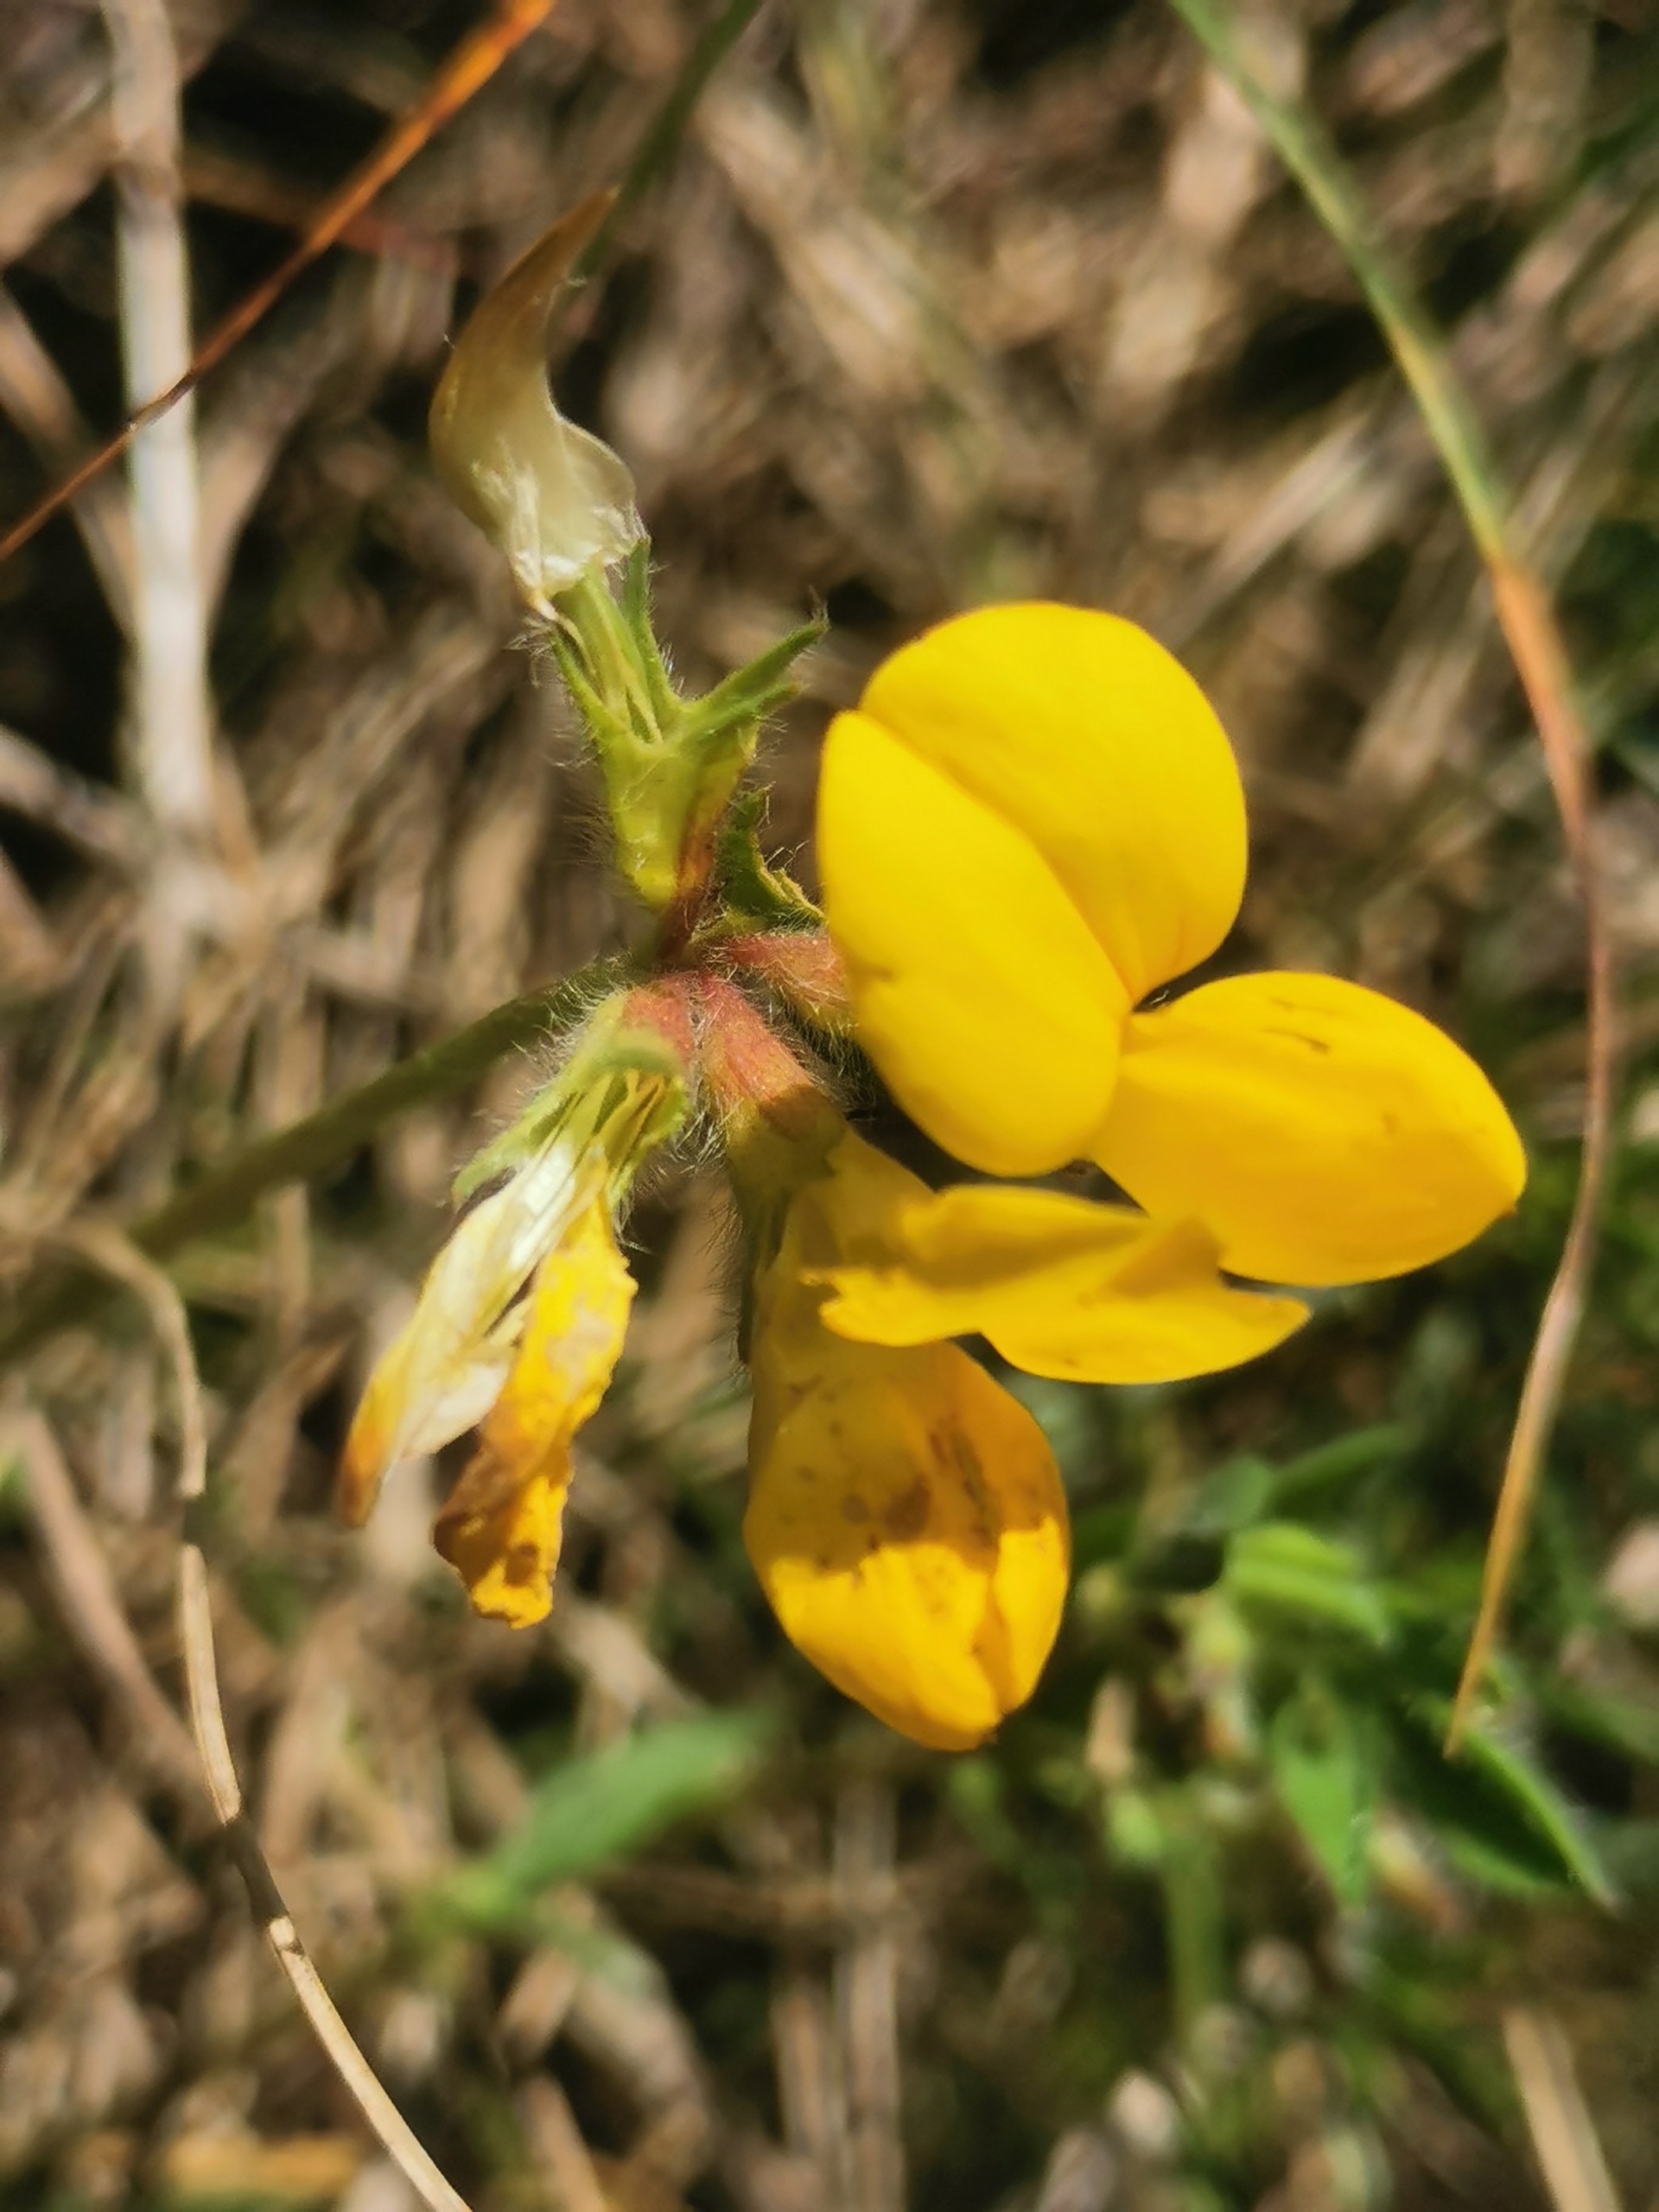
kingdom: Plantae
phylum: Tracheophyta
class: Magnoliopsida
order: Fabales
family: Fabaceae
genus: Lotus
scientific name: Lotus corniculatus
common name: Almindelig kællingetand
